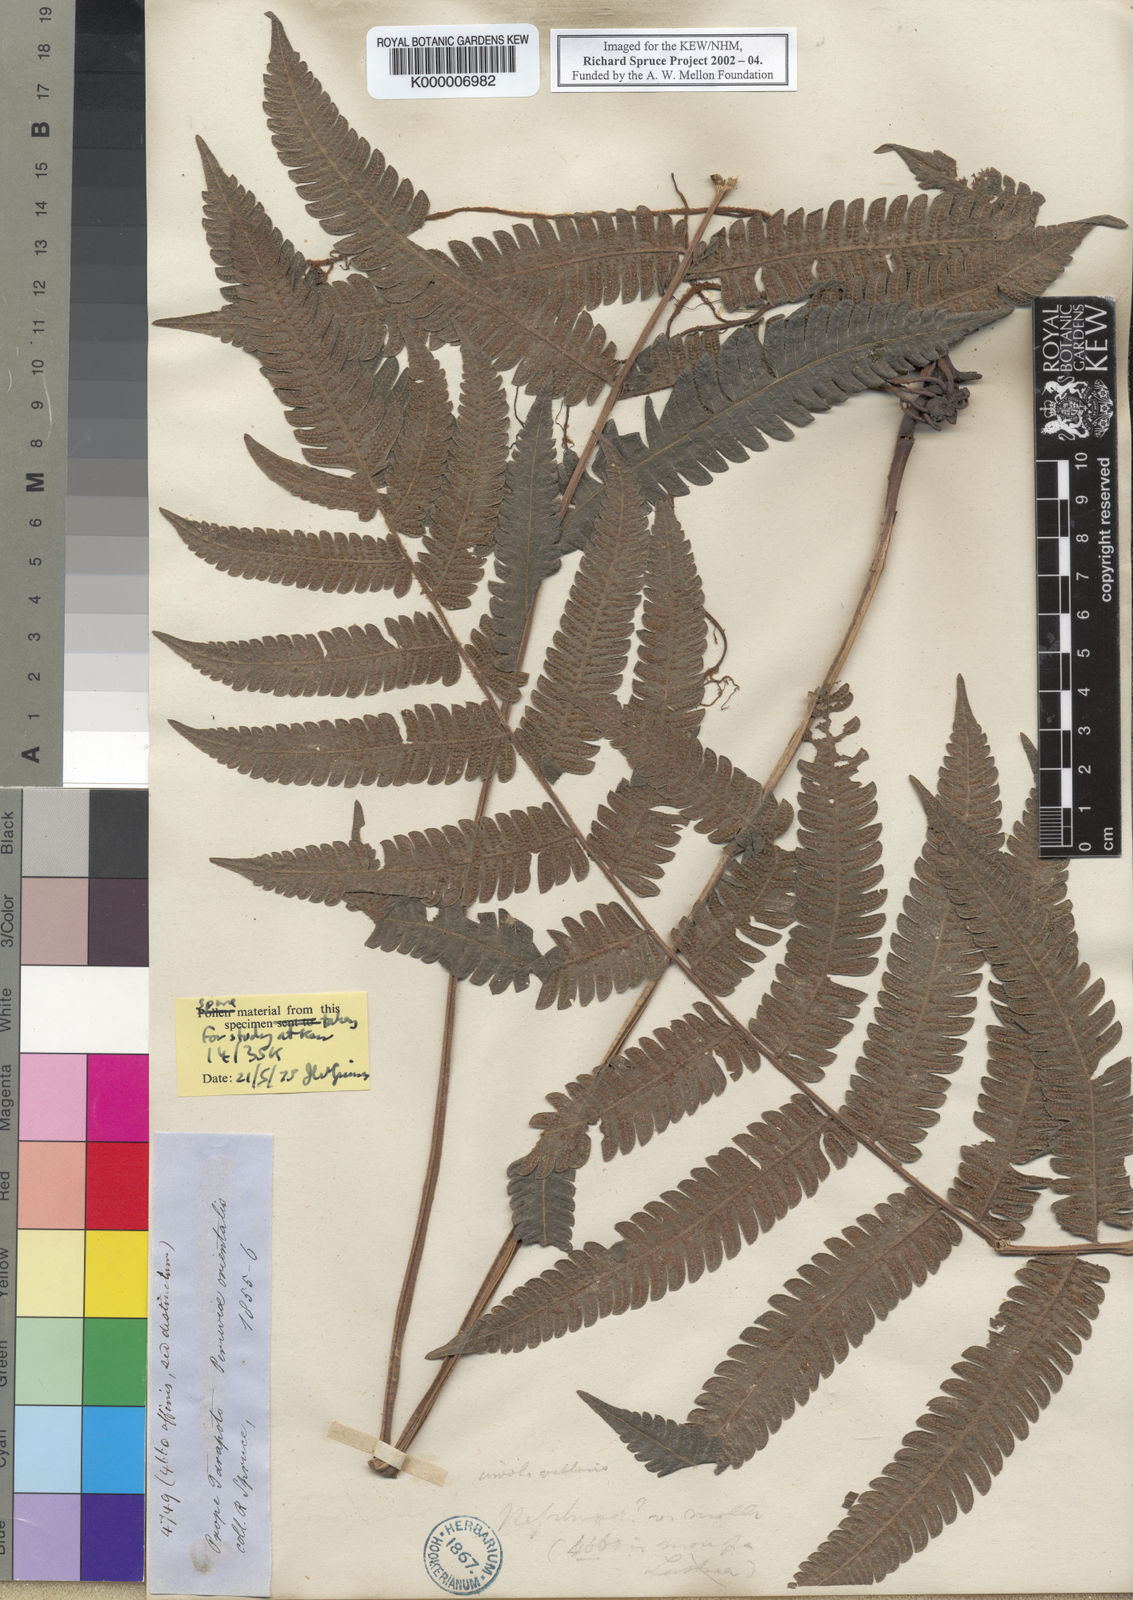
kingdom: Plantae
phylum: Tracheophyta
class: Polypodiopsida
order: Polypodiales
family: Polypodiaceae
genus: Goniophlebium
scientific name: Goniophlebium
